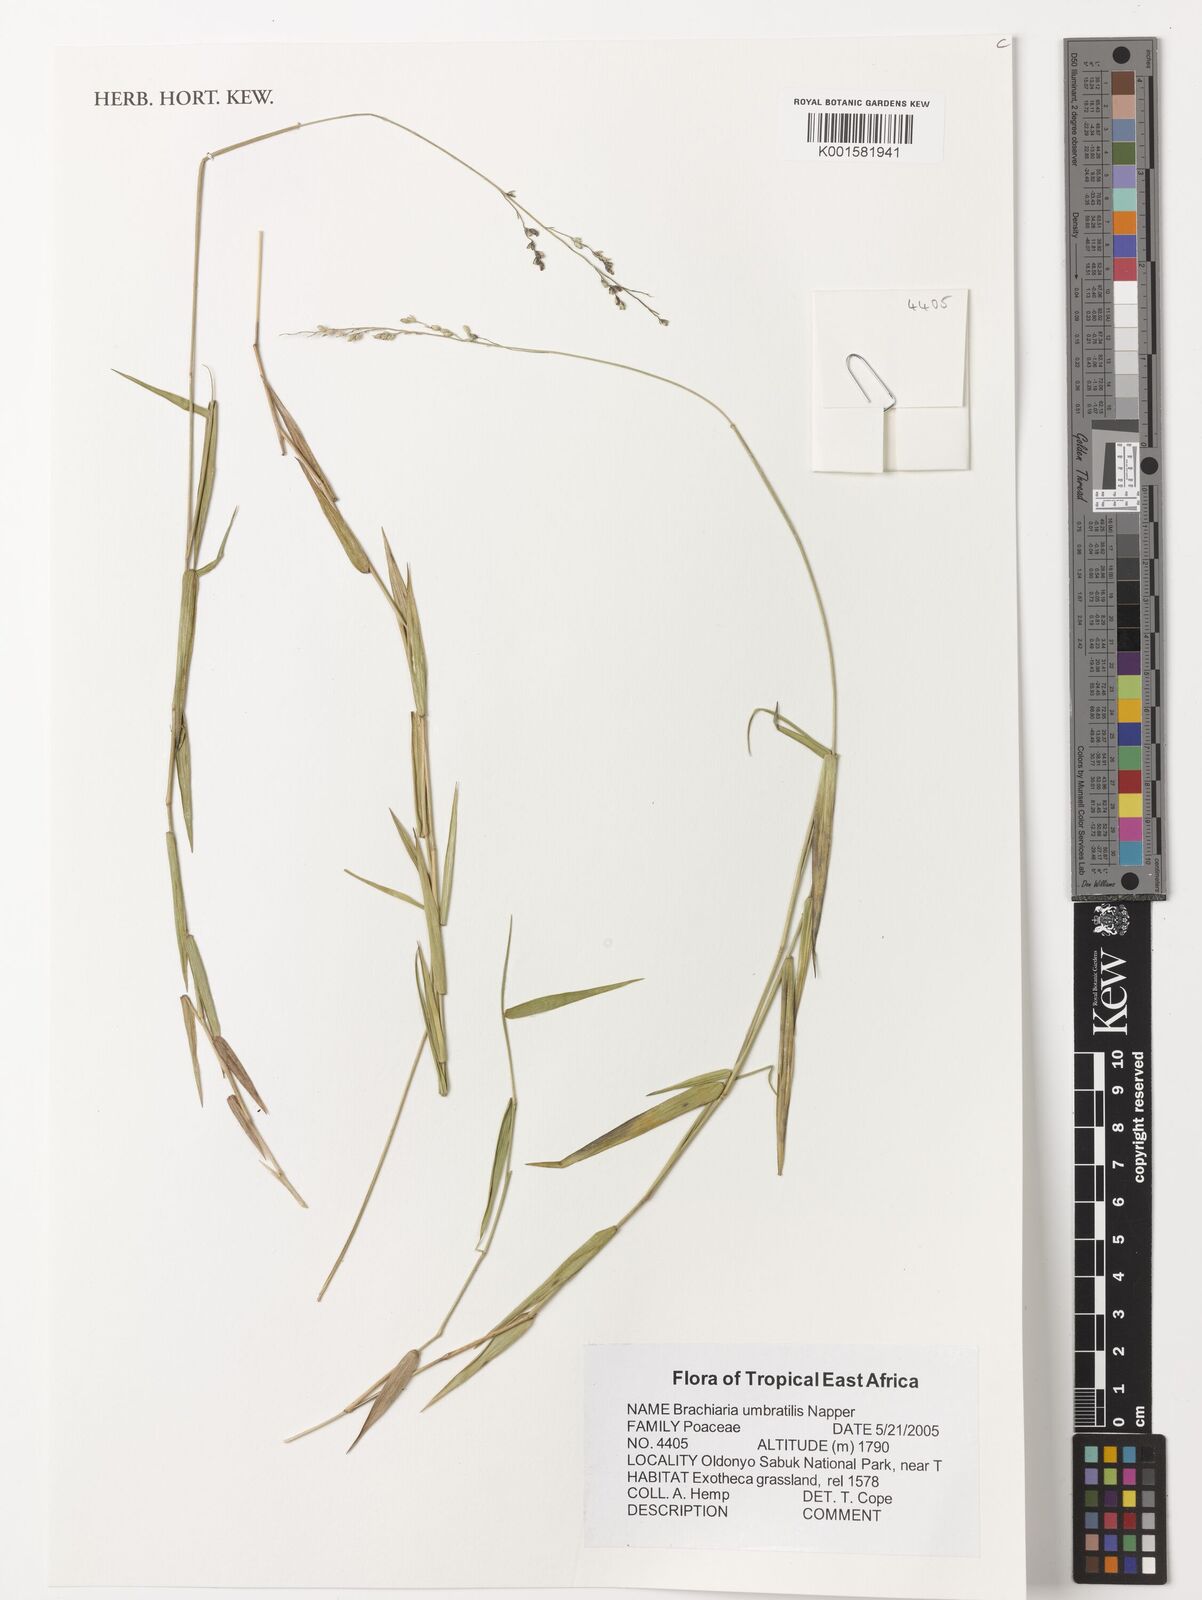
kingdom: Plantae
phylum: Tracheophyta
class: Liliopsida
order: Poales
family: Poaceae
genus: Urochloa
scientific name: Urochloa Brachiaria umbratilis
